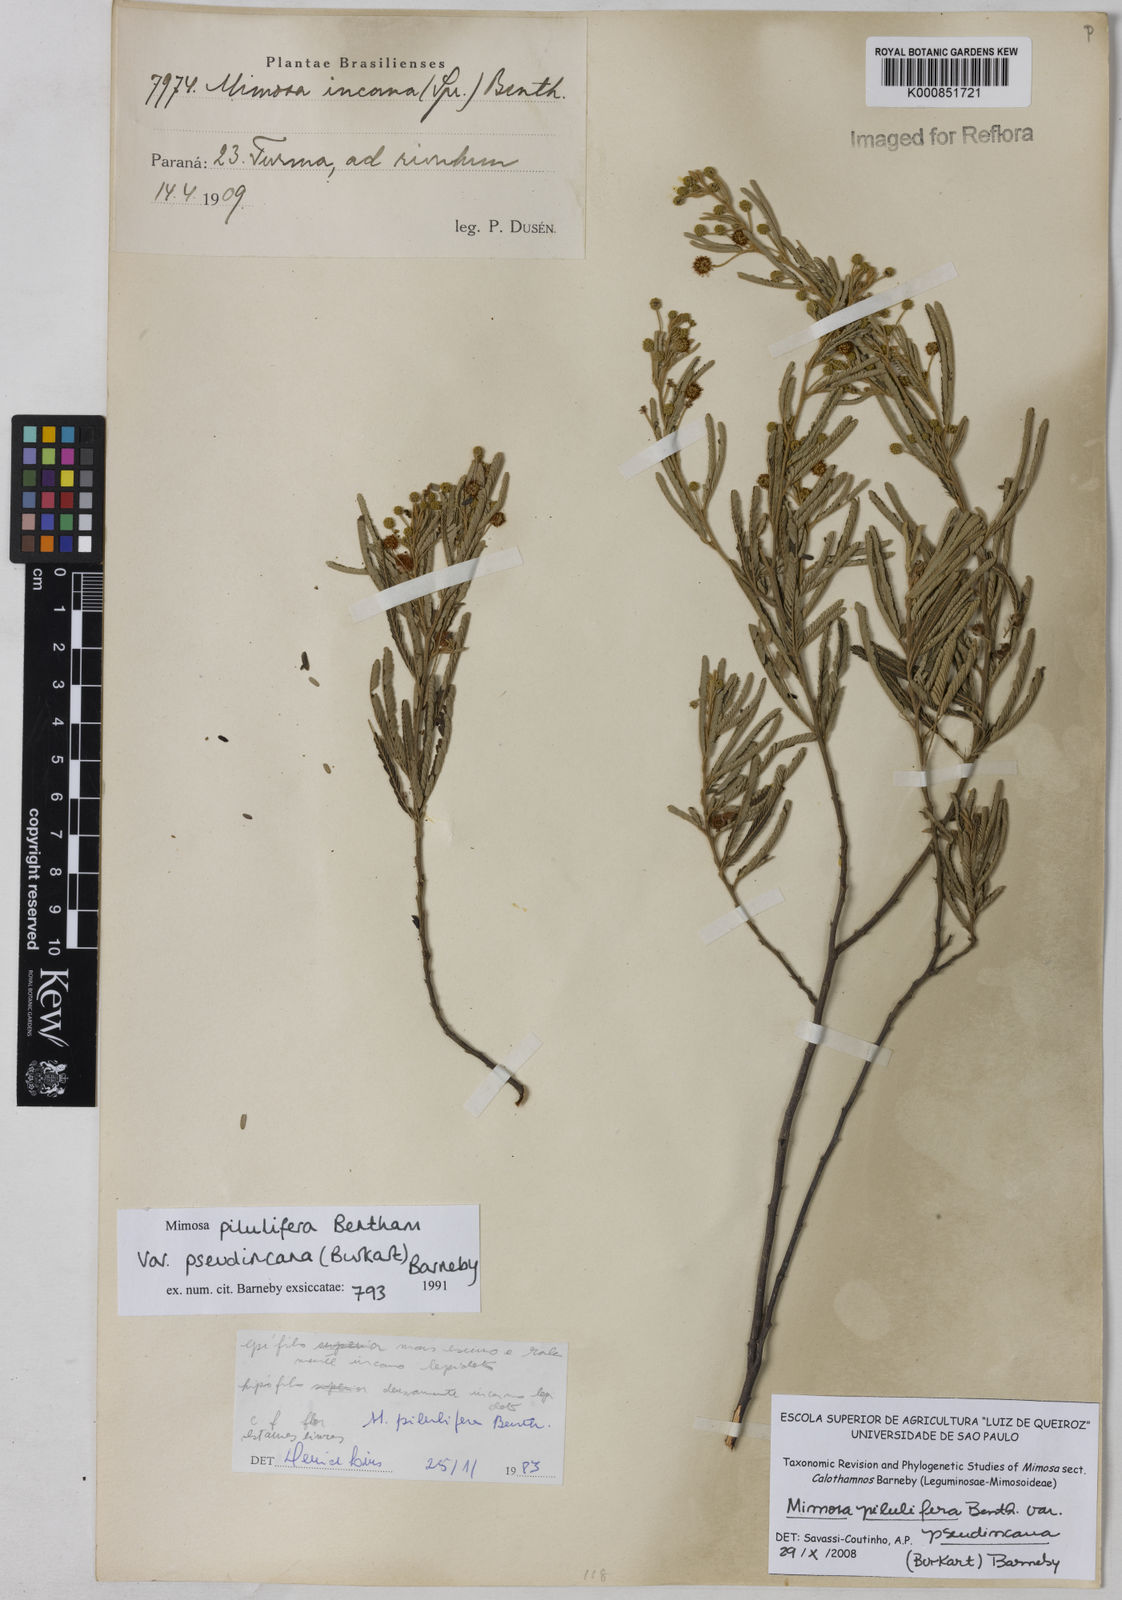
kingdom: Plantae
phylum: Tracheophyta
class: Magnoliopsida
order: Fabales
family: Fabaceae
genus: Mimosa
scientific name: Mimosa pilulifera
